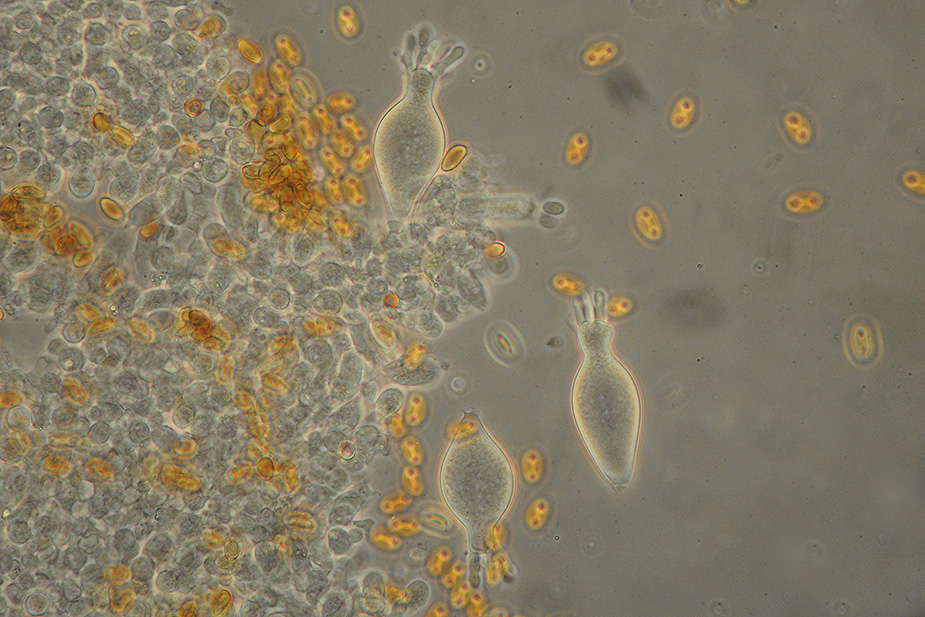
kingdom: Fungi
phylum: Basidiomycota
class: Agaricomycetes
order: Agaricales
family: Strophariaceae
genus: Agrocybe
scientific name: Agrocybe arvalis
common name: rodslående agerhat
